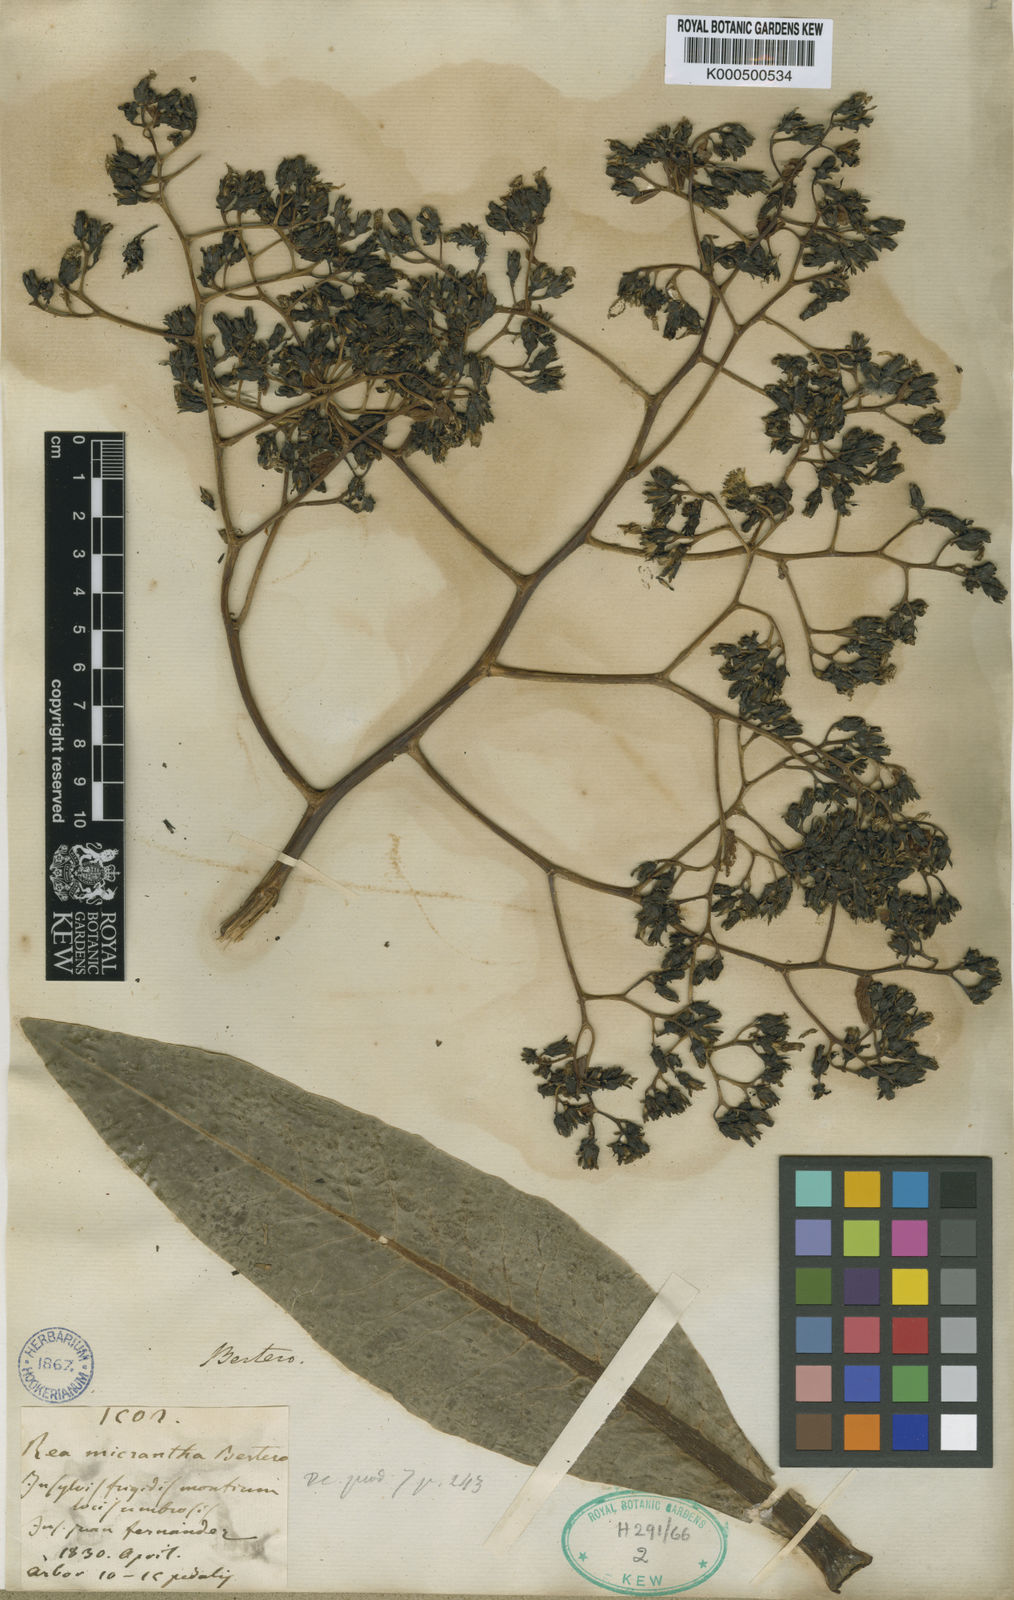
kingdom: Plantae
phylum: Tracheophyta
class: Magnoliopsida
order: Asterales
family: Asteraceae
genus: Sonchus
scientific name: Sonchus
